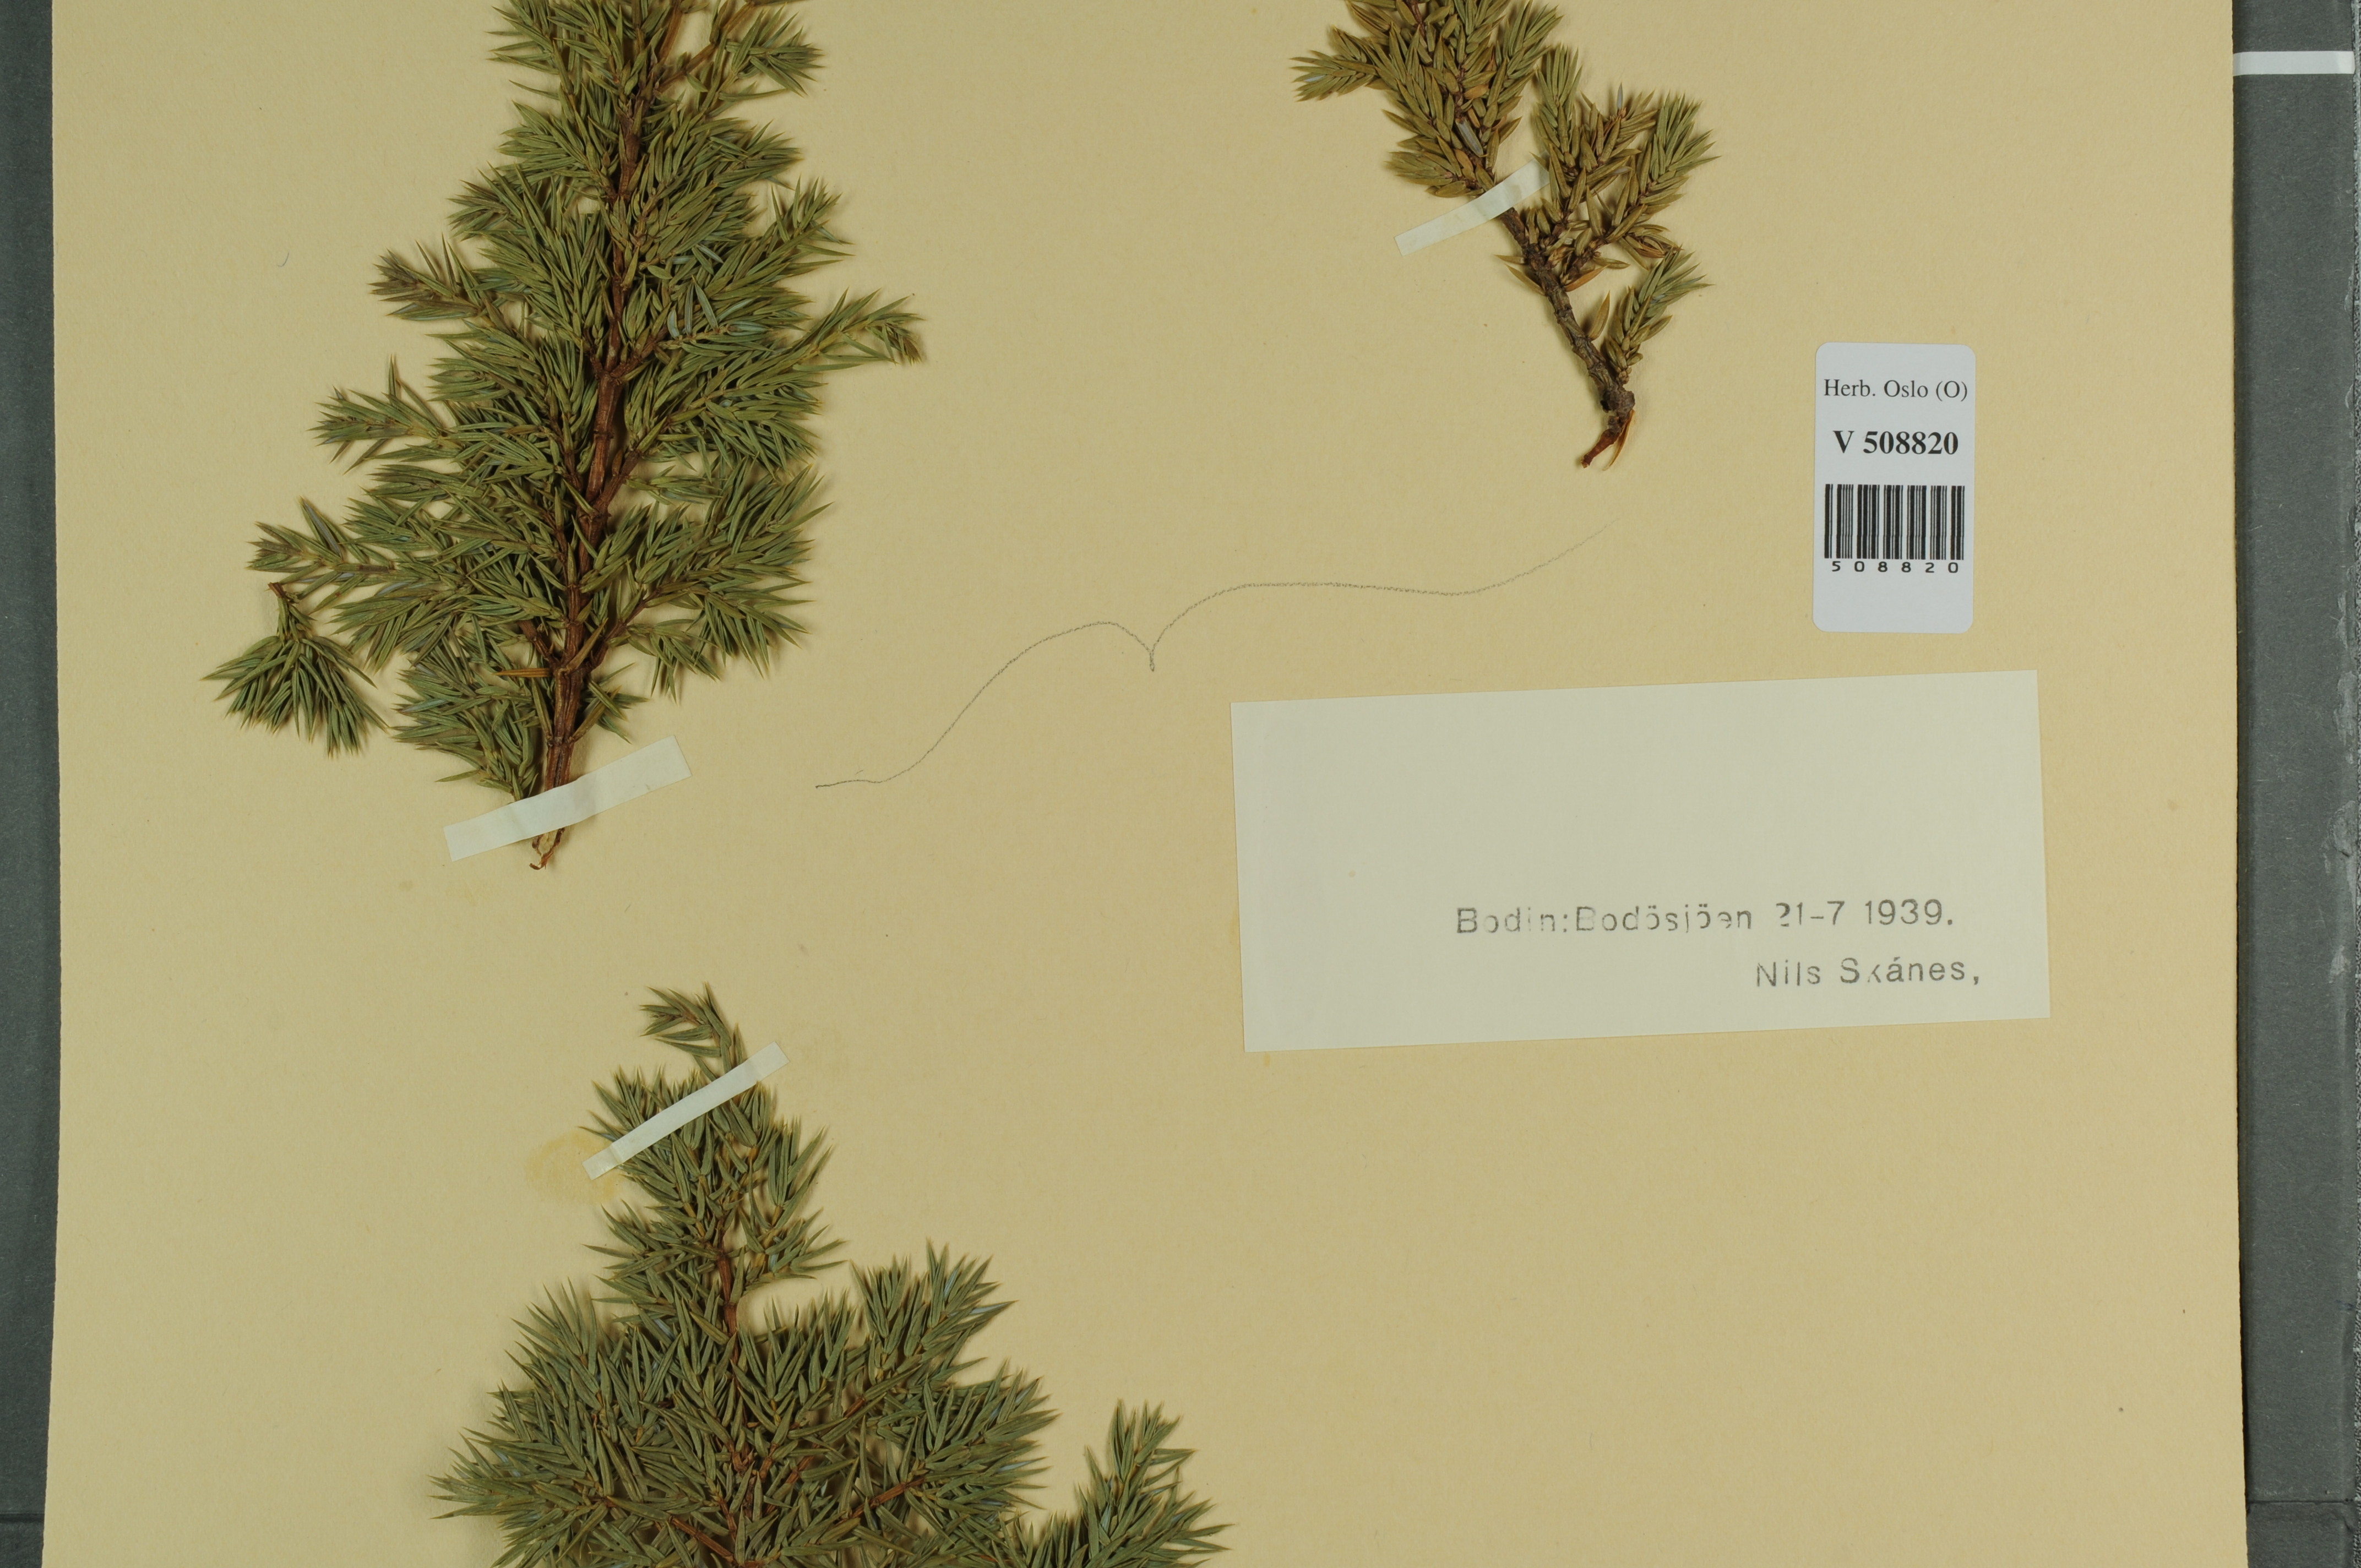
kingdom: Plantae
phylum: Tracheophyta
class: Pinopsida
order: Pinales
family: Cupressaceae
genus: Juniperus
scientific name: Juniperus communis
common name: Common juniper
